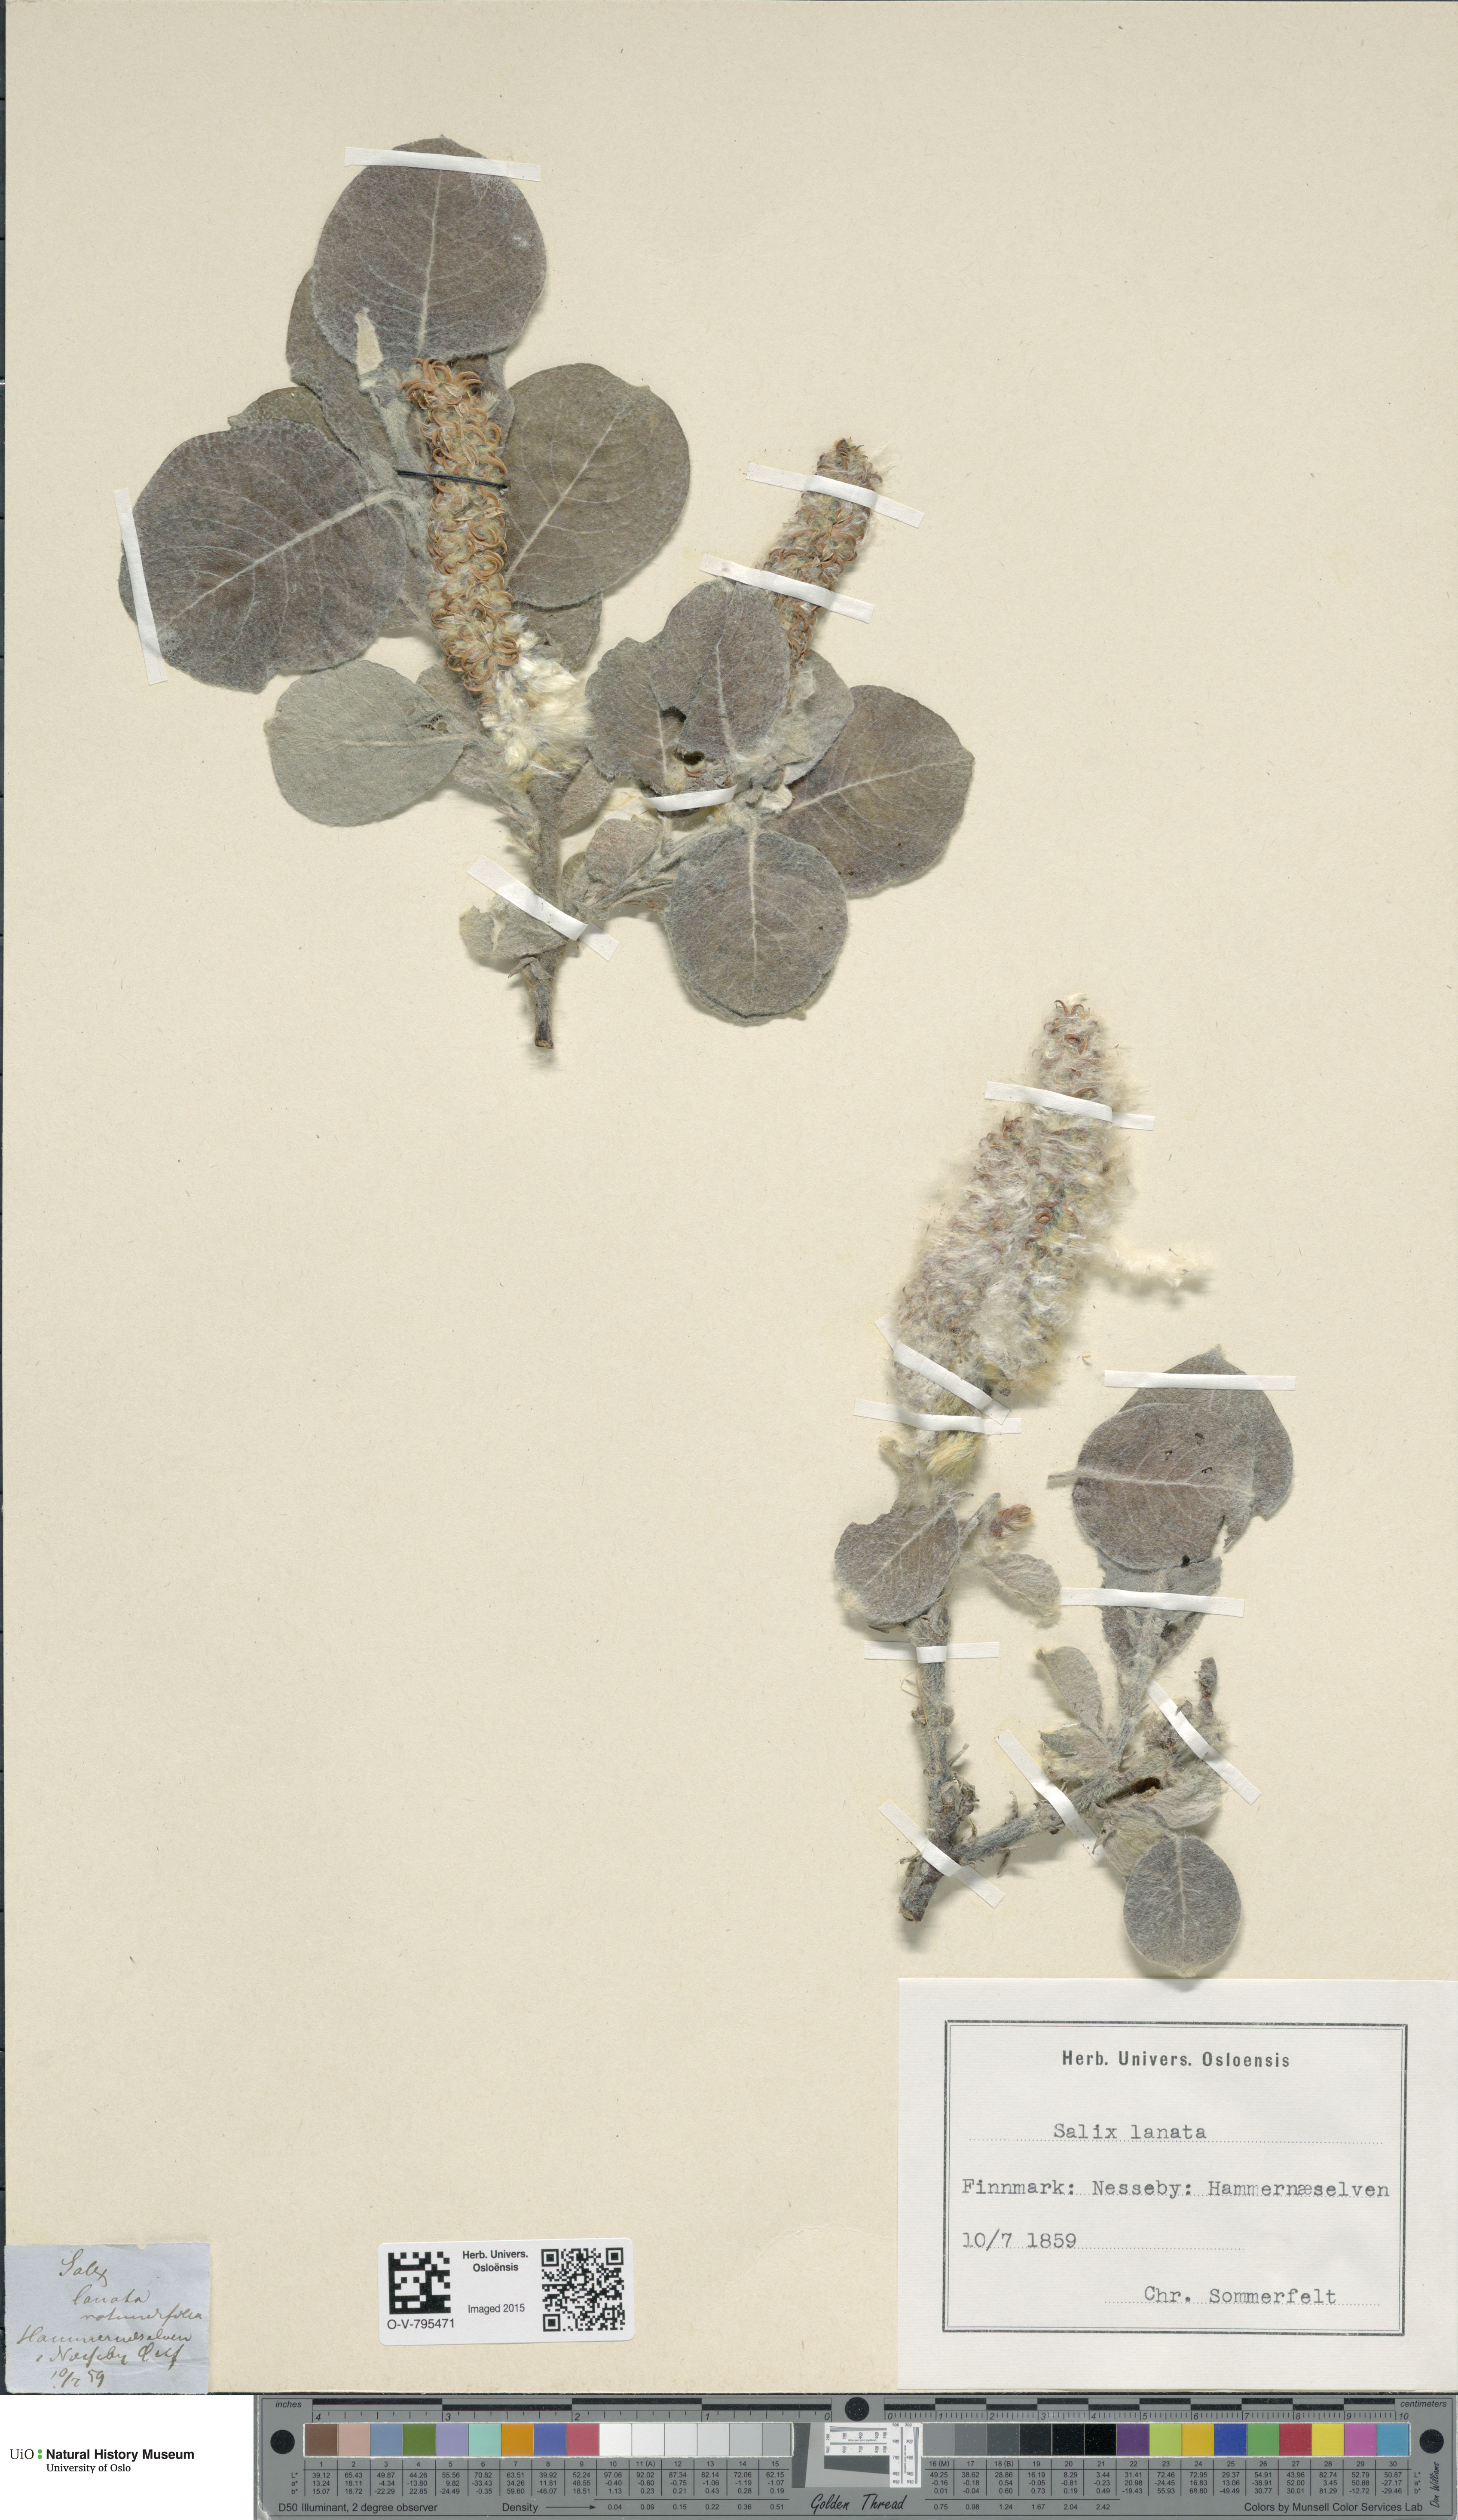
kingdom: Plantae
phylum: Tracheophyta
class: Magnoliopsida
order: Malpighiales
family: Salicaceae
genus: Salix
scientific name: Salix lanata
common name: Woolly willow
